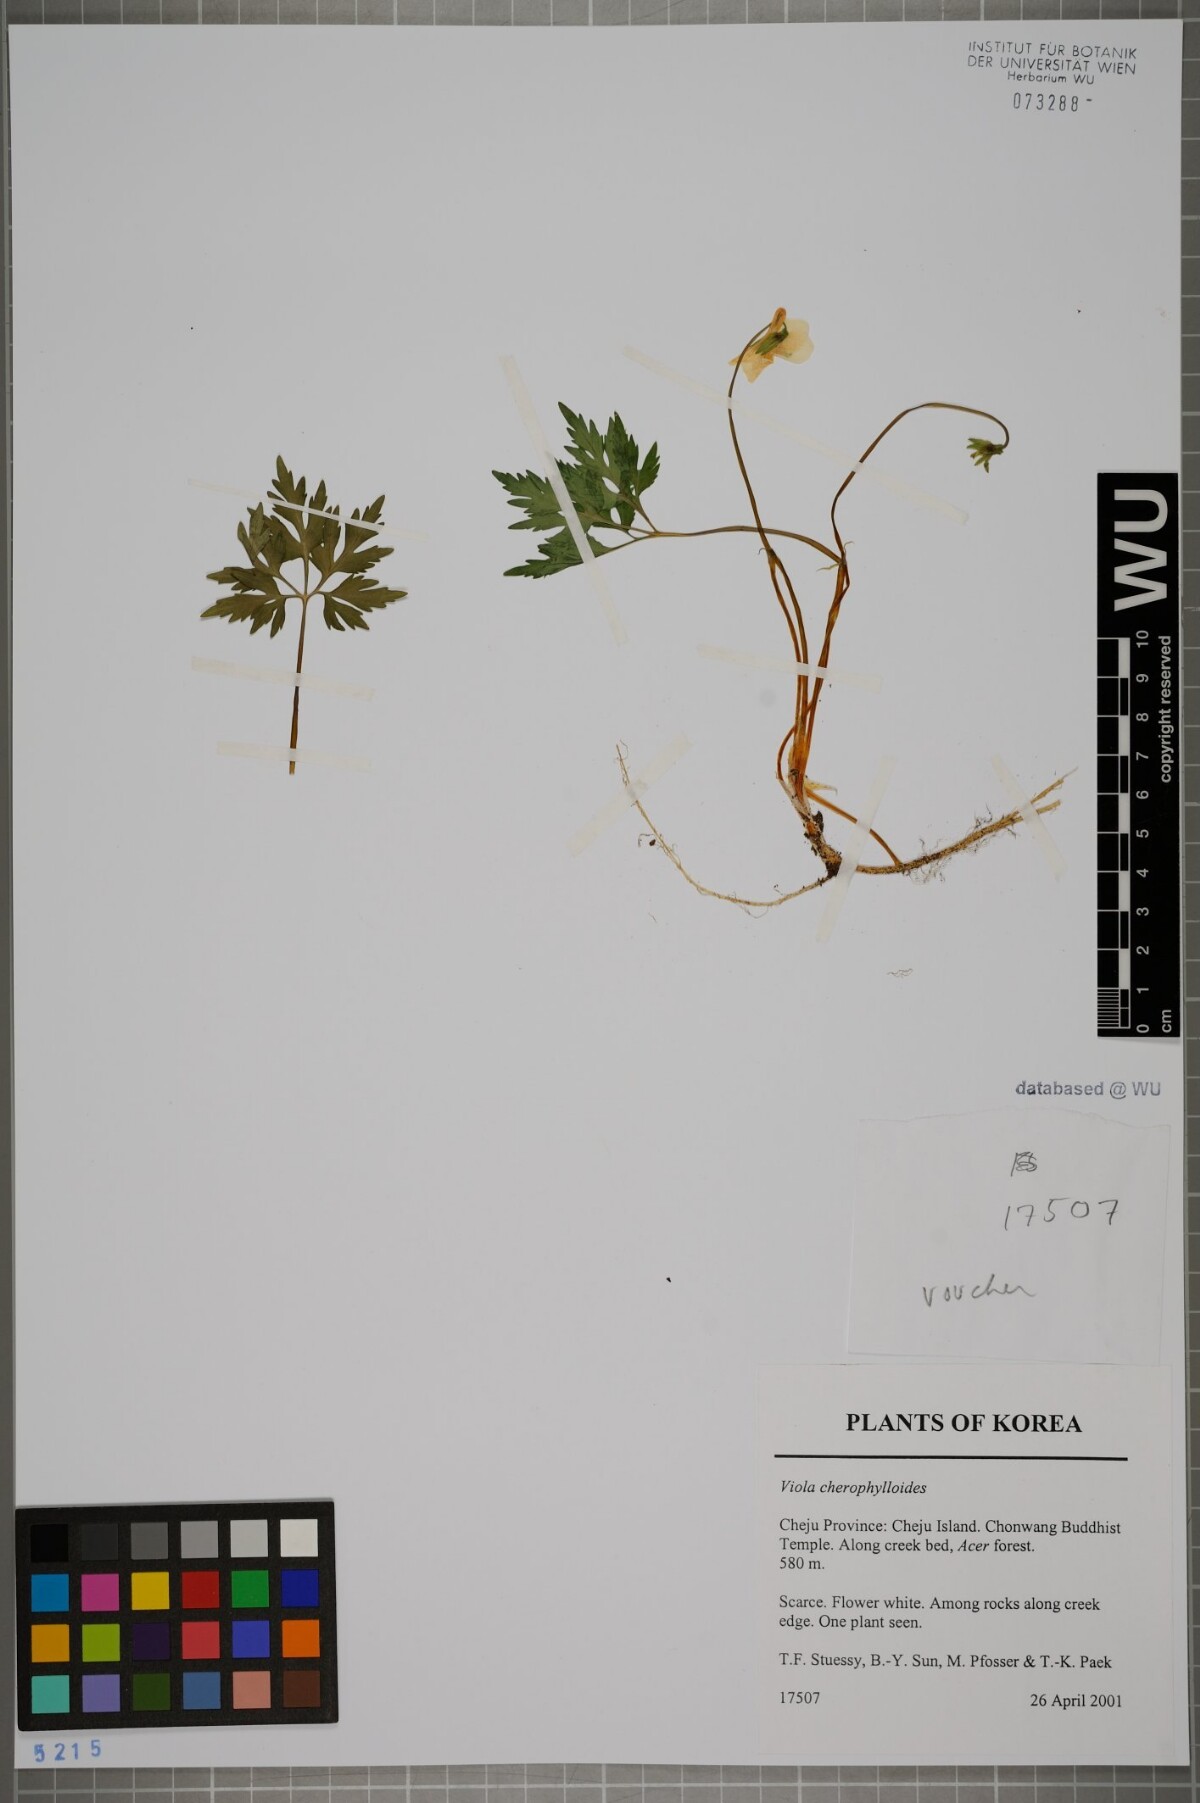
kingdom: Plantae
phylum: Tracheophyta
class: Magnoliopsida
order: Malpighiales
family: Violaceae
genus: Viola
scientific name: Viola albida
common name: Korean violet
